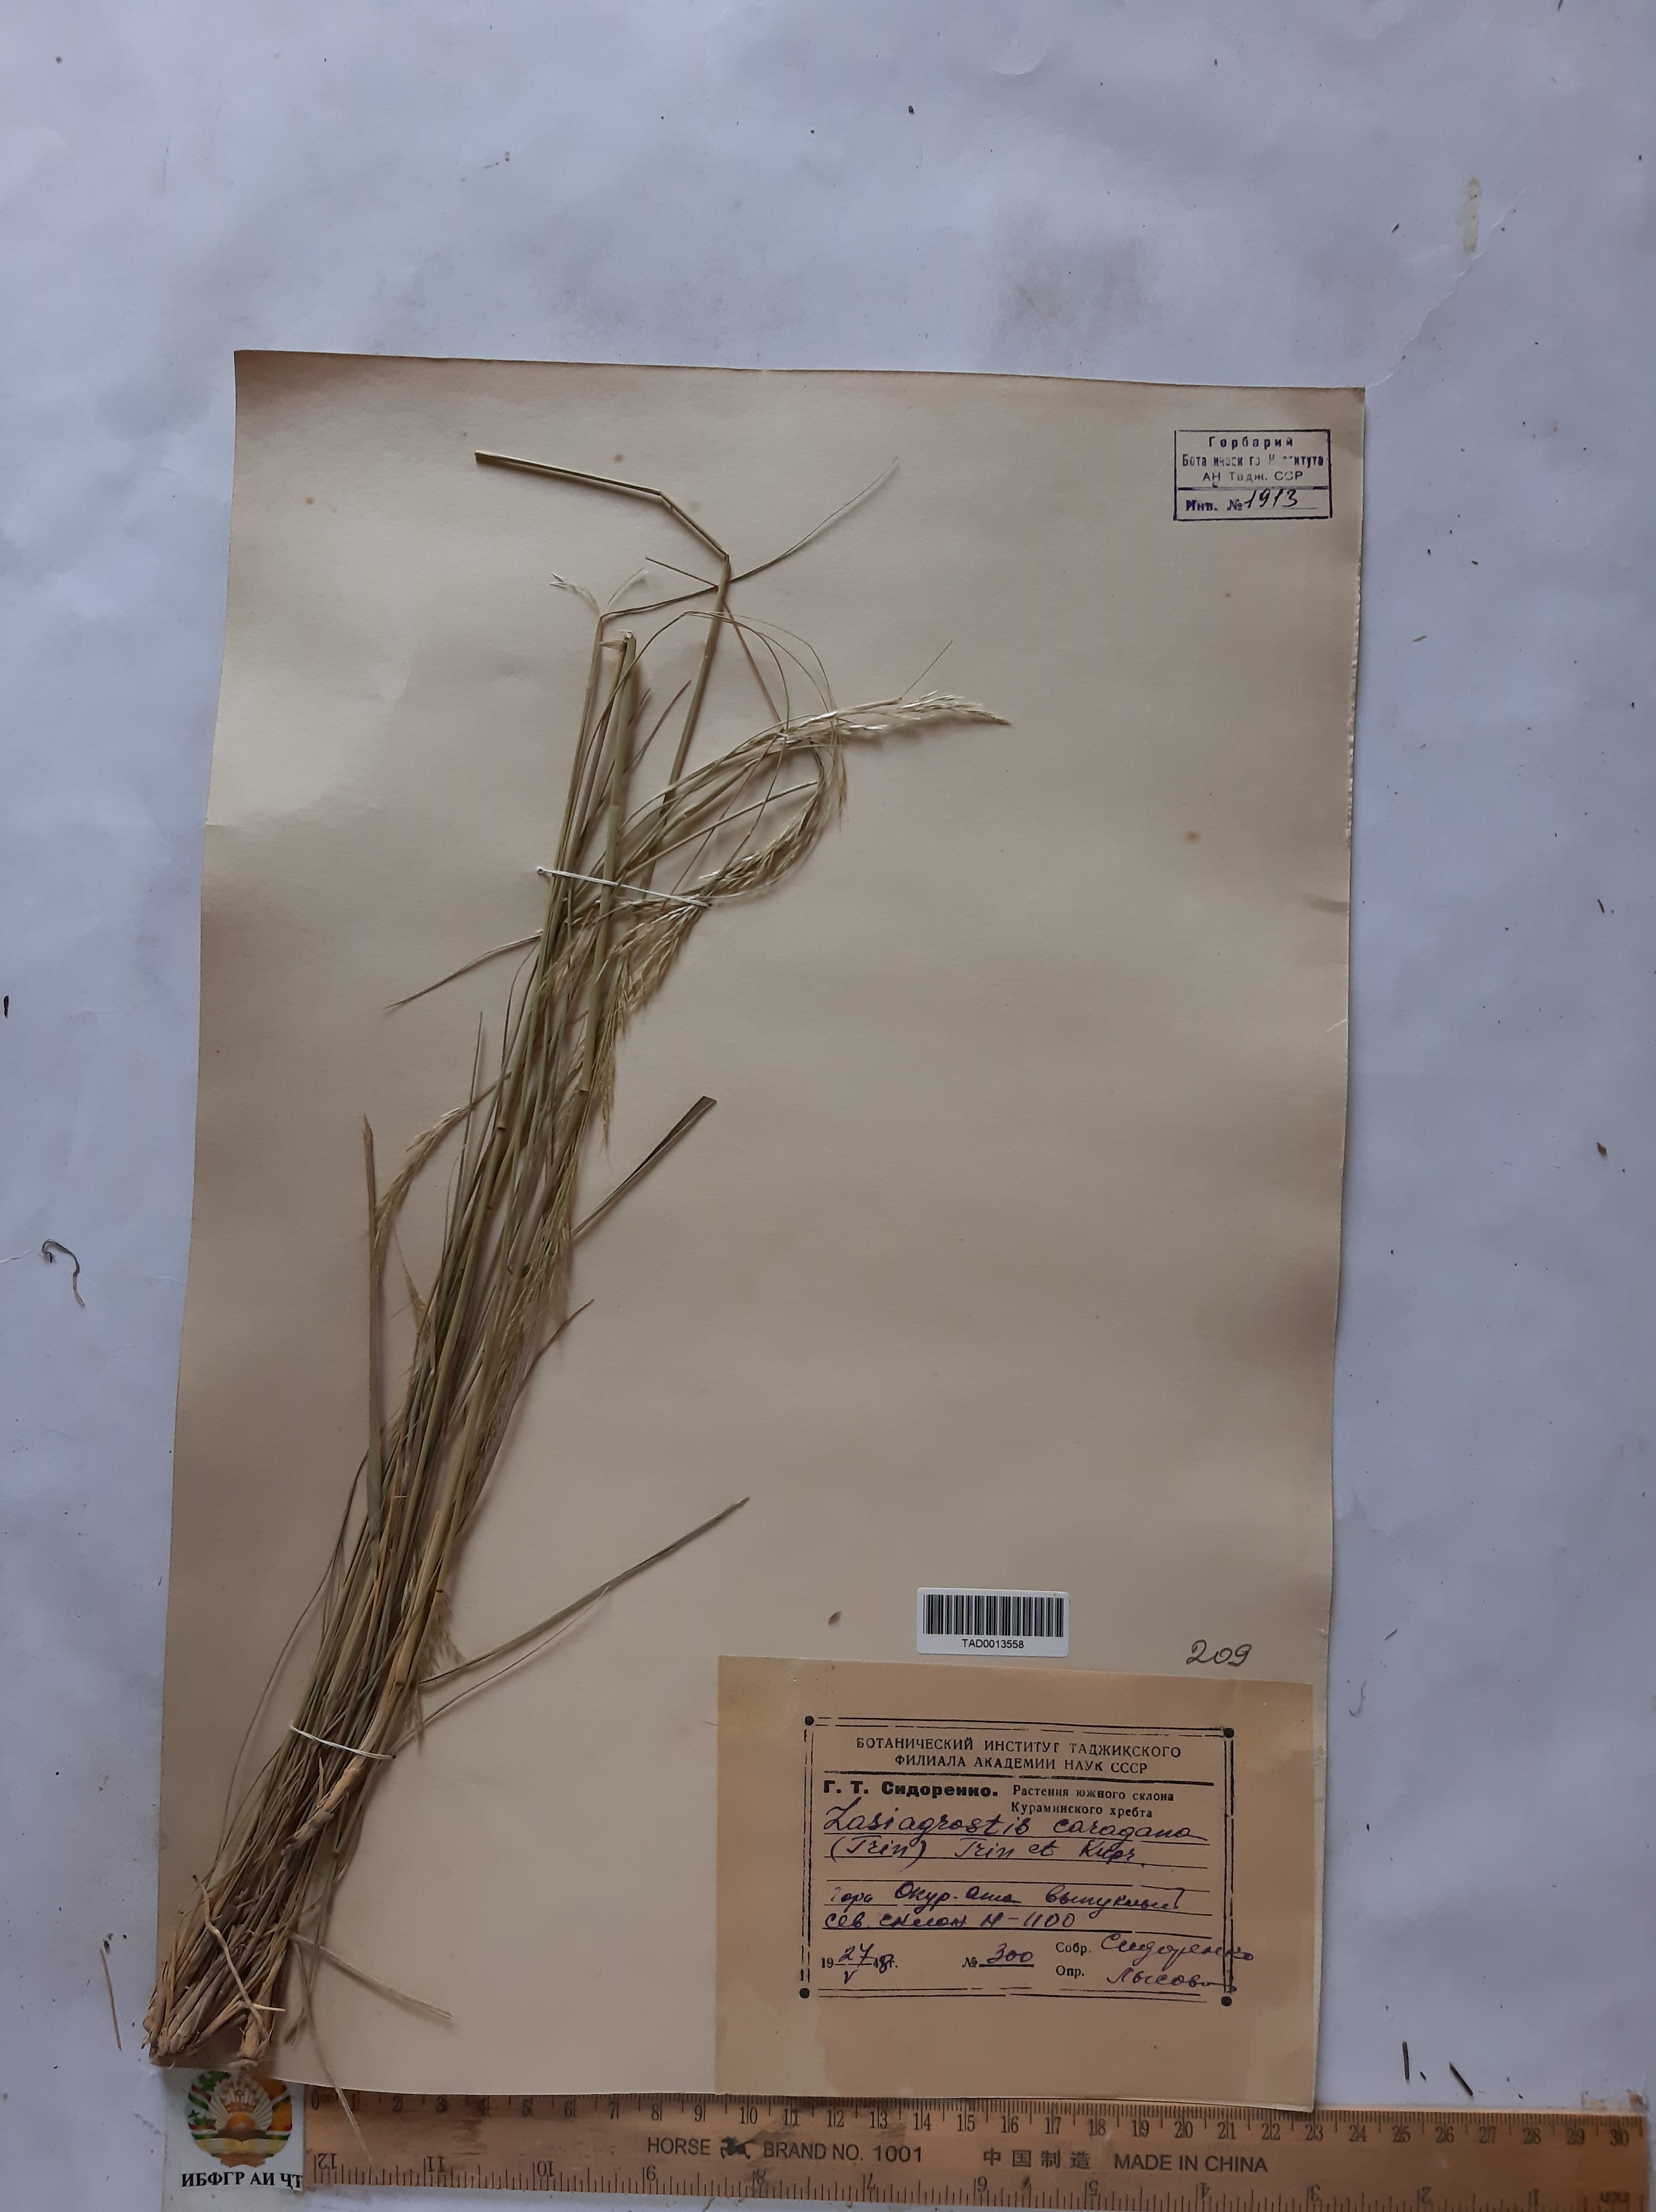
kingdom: Plantae
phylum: Tracheophyta
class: Liliopsida
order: Poales
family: Poaceae
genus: Stipa
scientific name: Stipa conferta
